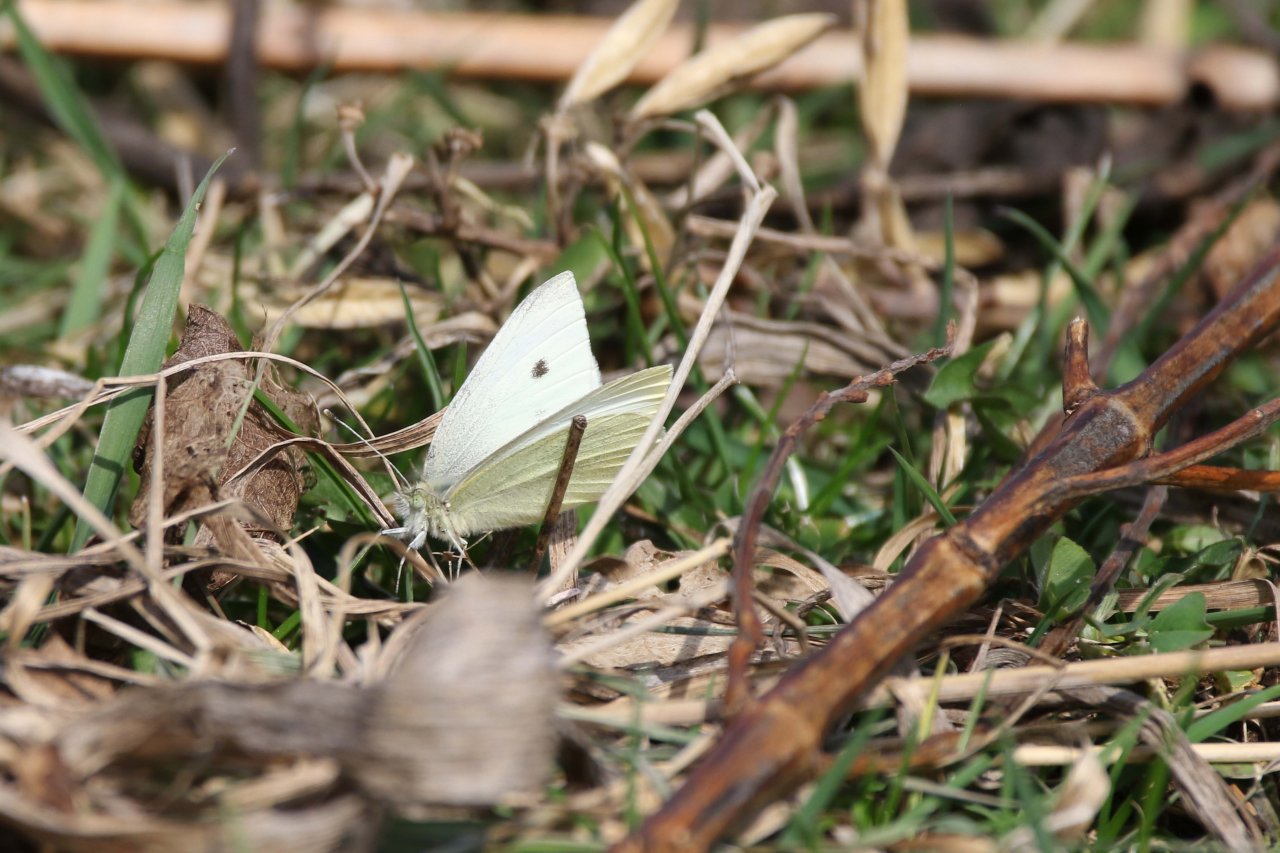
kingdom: Animalia
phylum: Arthropoda
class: Insecta
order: Lepidoptera
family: Pieridae
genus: Pieris
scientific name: Pieris rapae
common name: Cabbage White
